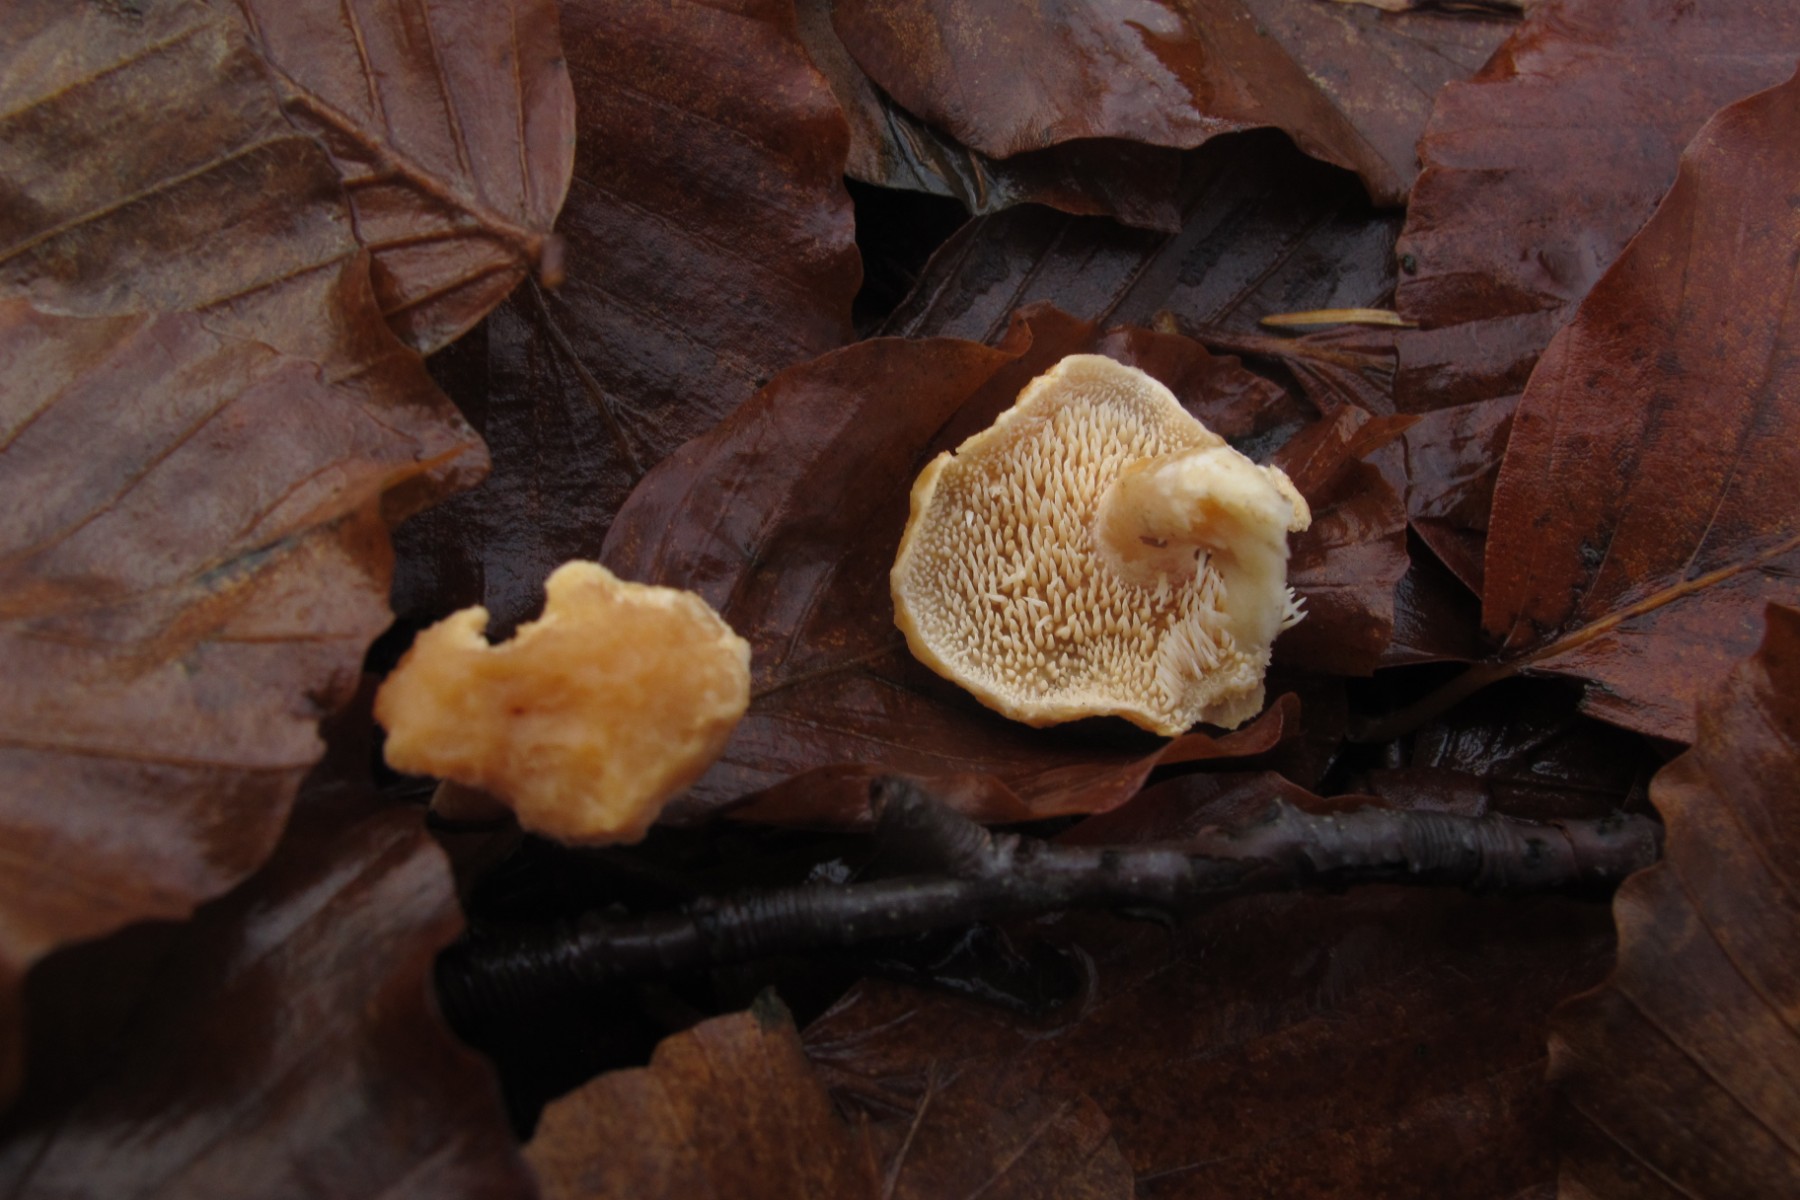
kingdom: Fungi
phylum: Basidiomycota
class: Agaricomycetes
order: Cantharellales
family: Hydnaceae
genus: Hydnum
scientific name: Hydnum
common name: pigsvamp
